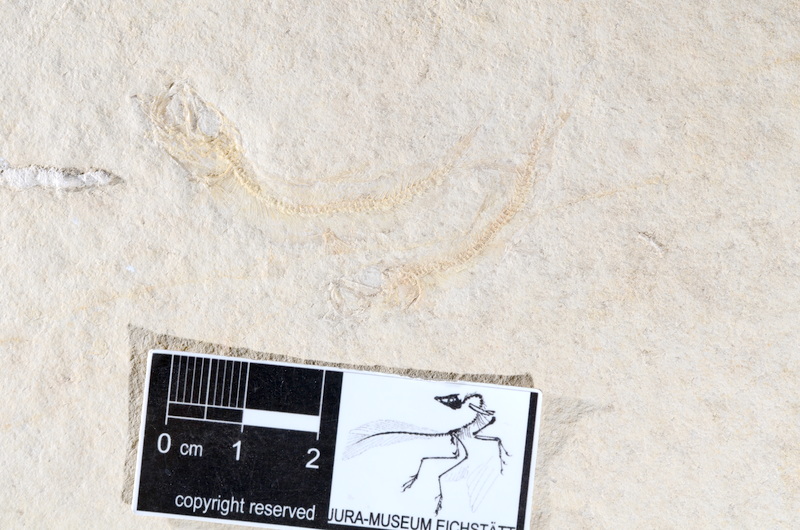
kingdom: Animalia
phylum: Chordata
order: Salmoniformes
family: Orthogonikleithridae
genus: Leptolepides
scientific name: Leptolepides sprattiformis
